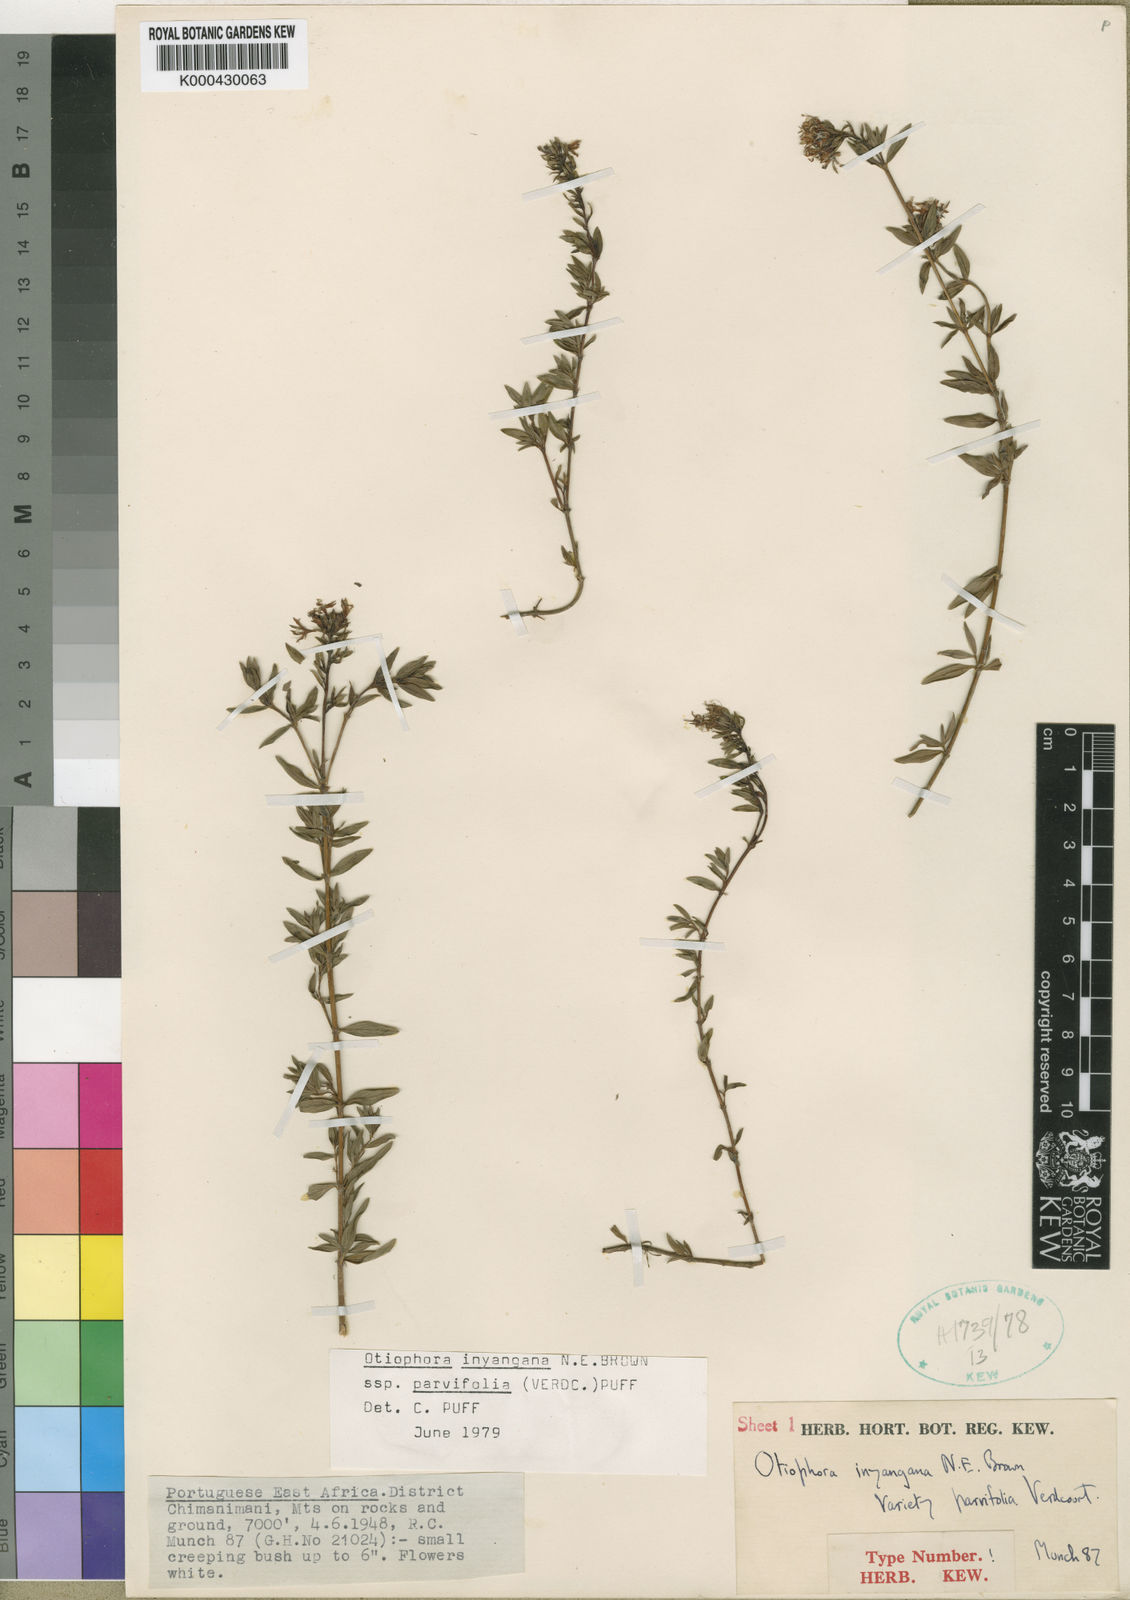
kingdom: Plantae
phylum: Tracheophyta
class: Magnoliopsida
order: Gentianales
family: Rubiaceae
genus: Otiophora
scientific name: Otiophora inyangana
